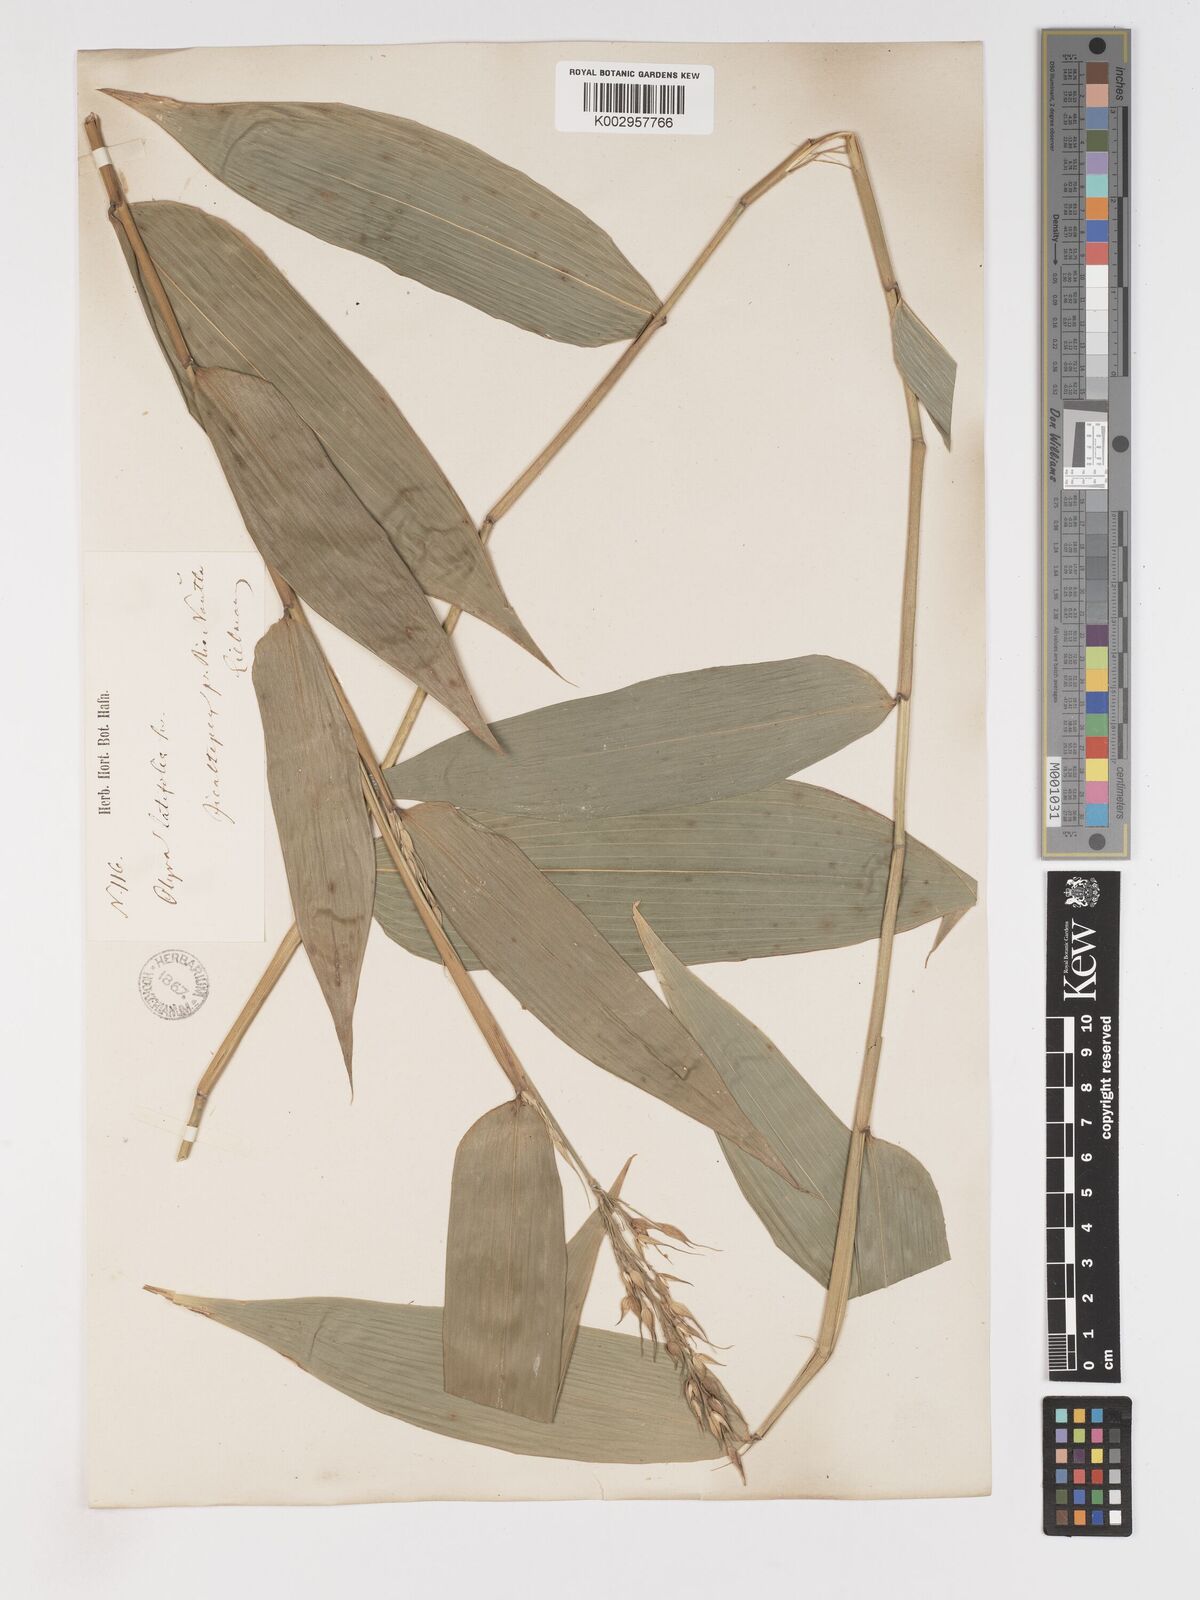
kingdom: Plantae
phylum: Tracheophyta
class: Liliopsida
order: Poales
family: Poaceae
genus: Olyra
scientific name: Olyra latifolia
